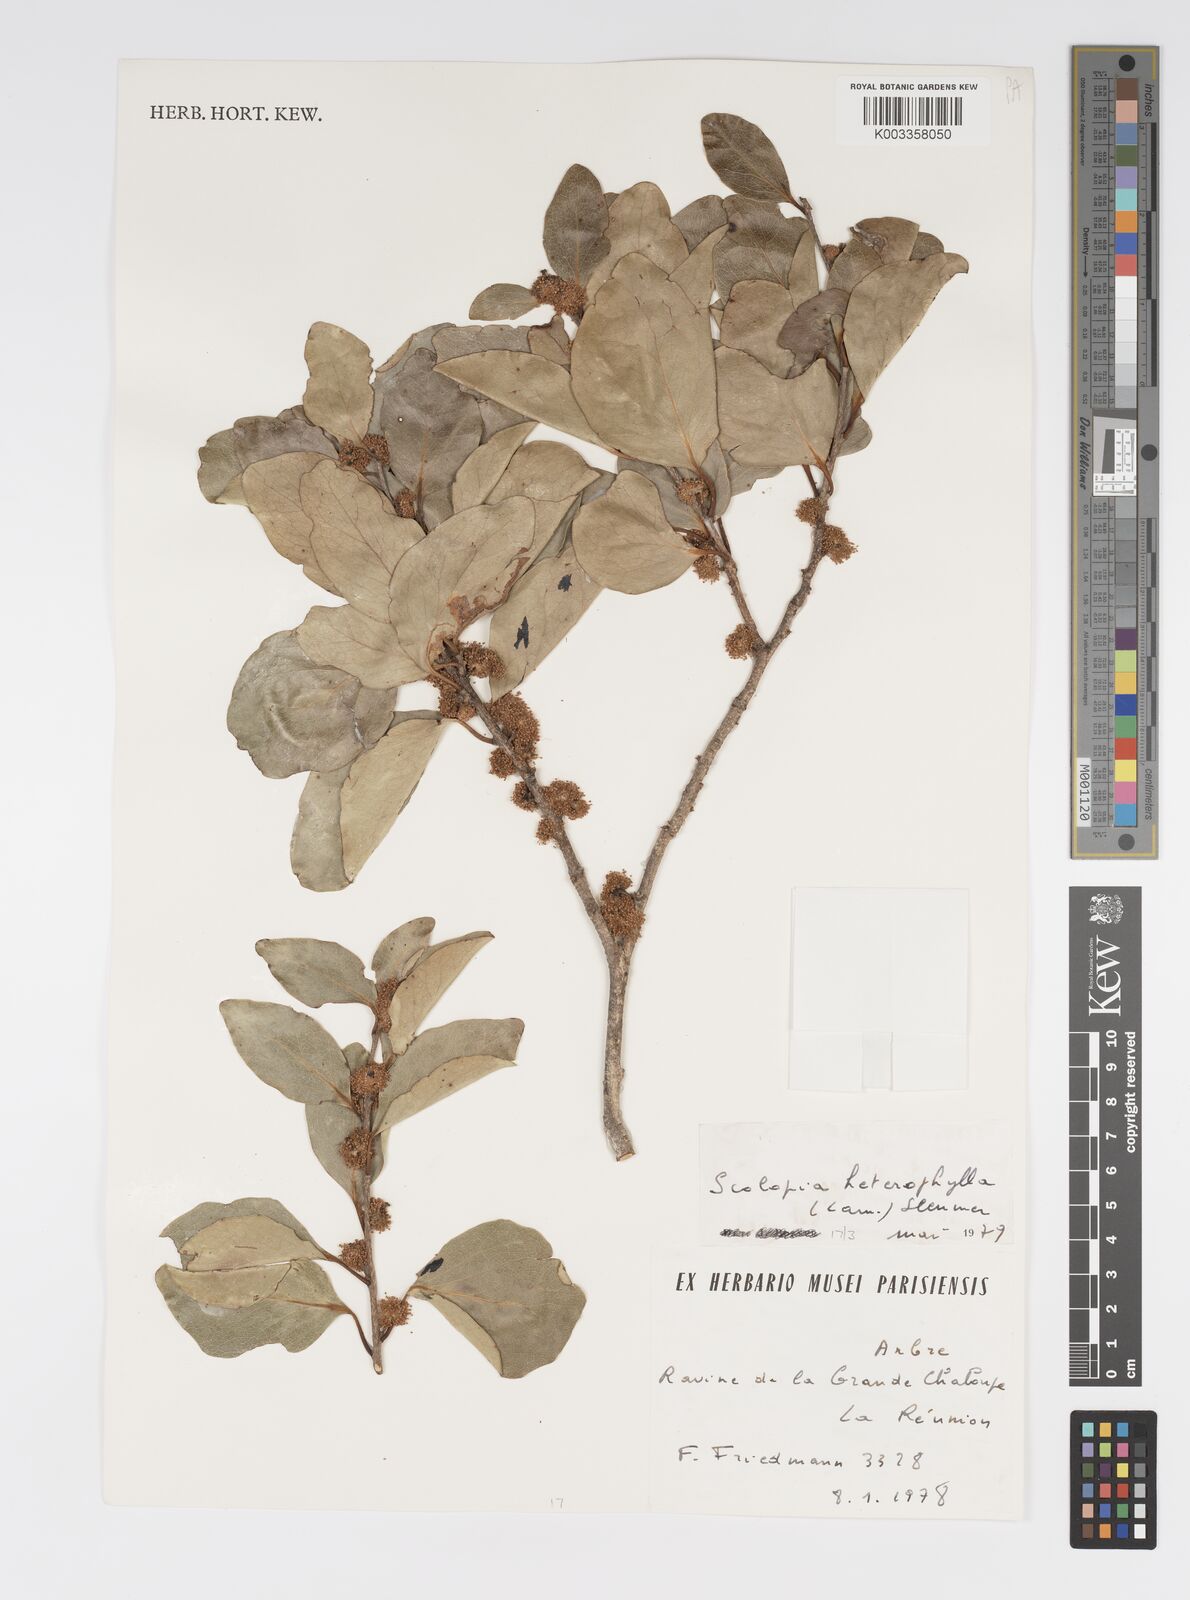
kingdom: Plantae
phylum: Tracheophyta
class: Magnoliopsida
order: Malpighiales
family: Salicaceae
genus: Scolopia
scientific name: Scolopia heterophylla
